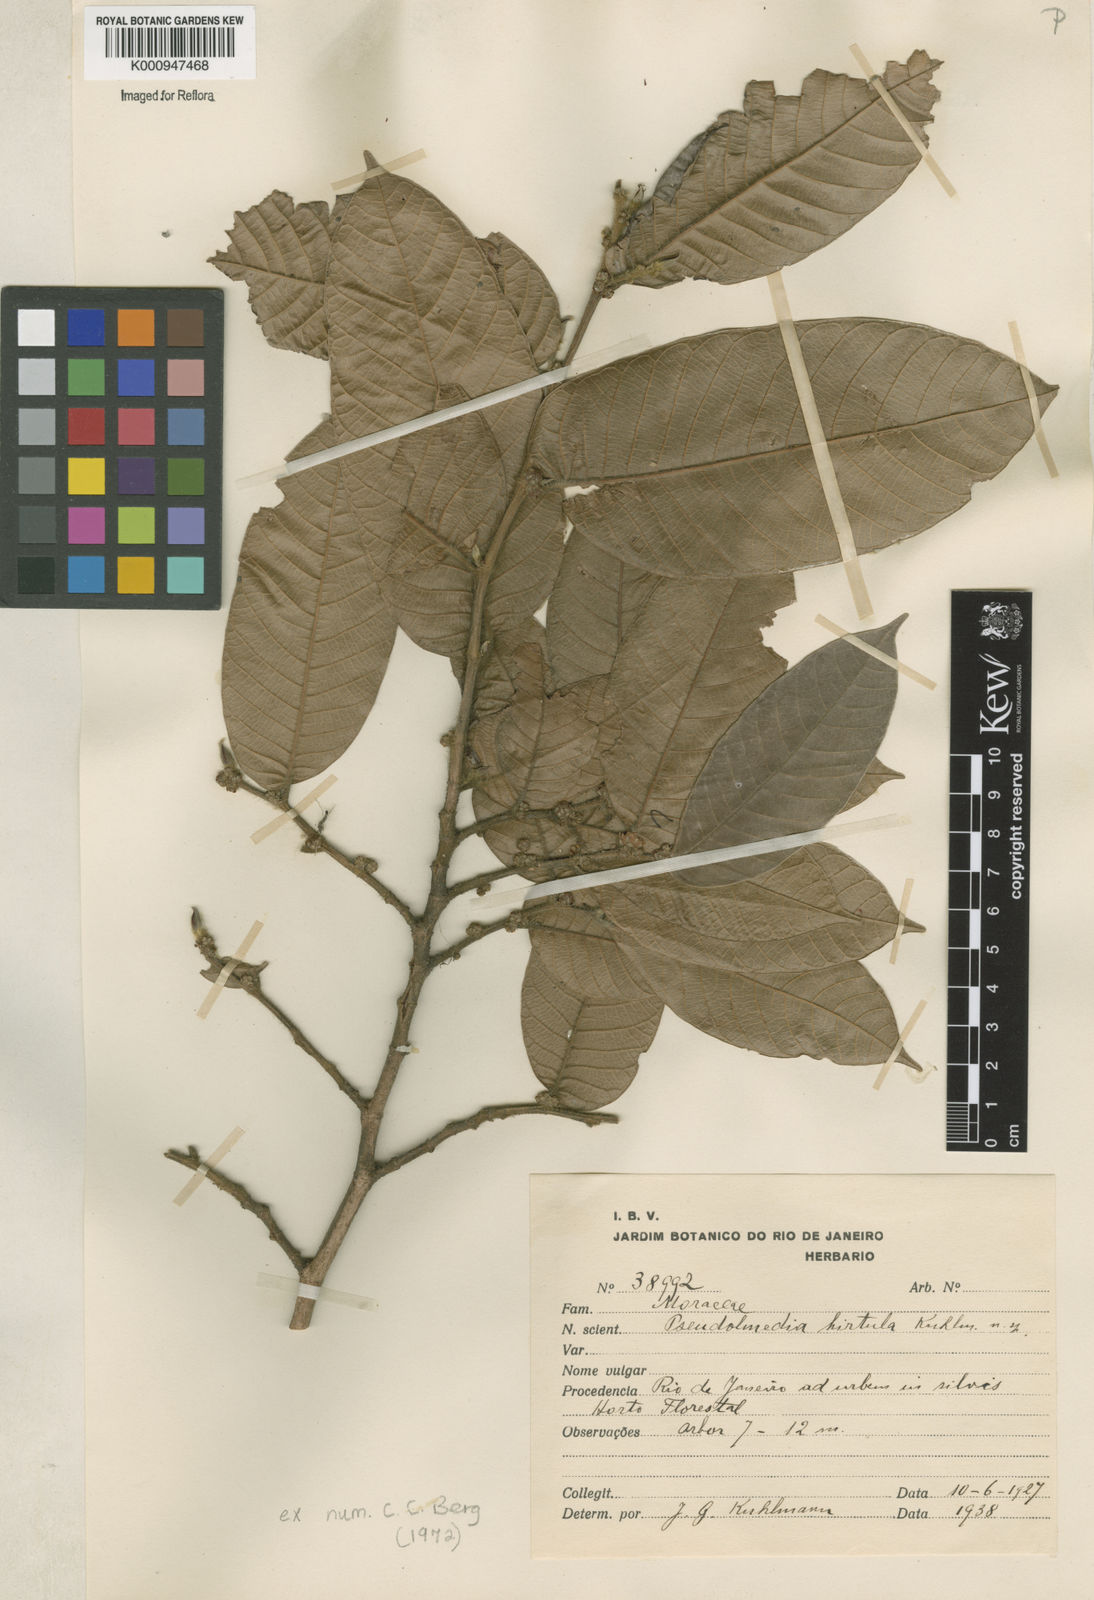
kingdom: Plantae
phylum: Tracheophyta
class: Magnoliopsida
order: Rosales
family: Moraceae
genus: Pseudolmedia
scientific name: Pseudolmedia hirtula
